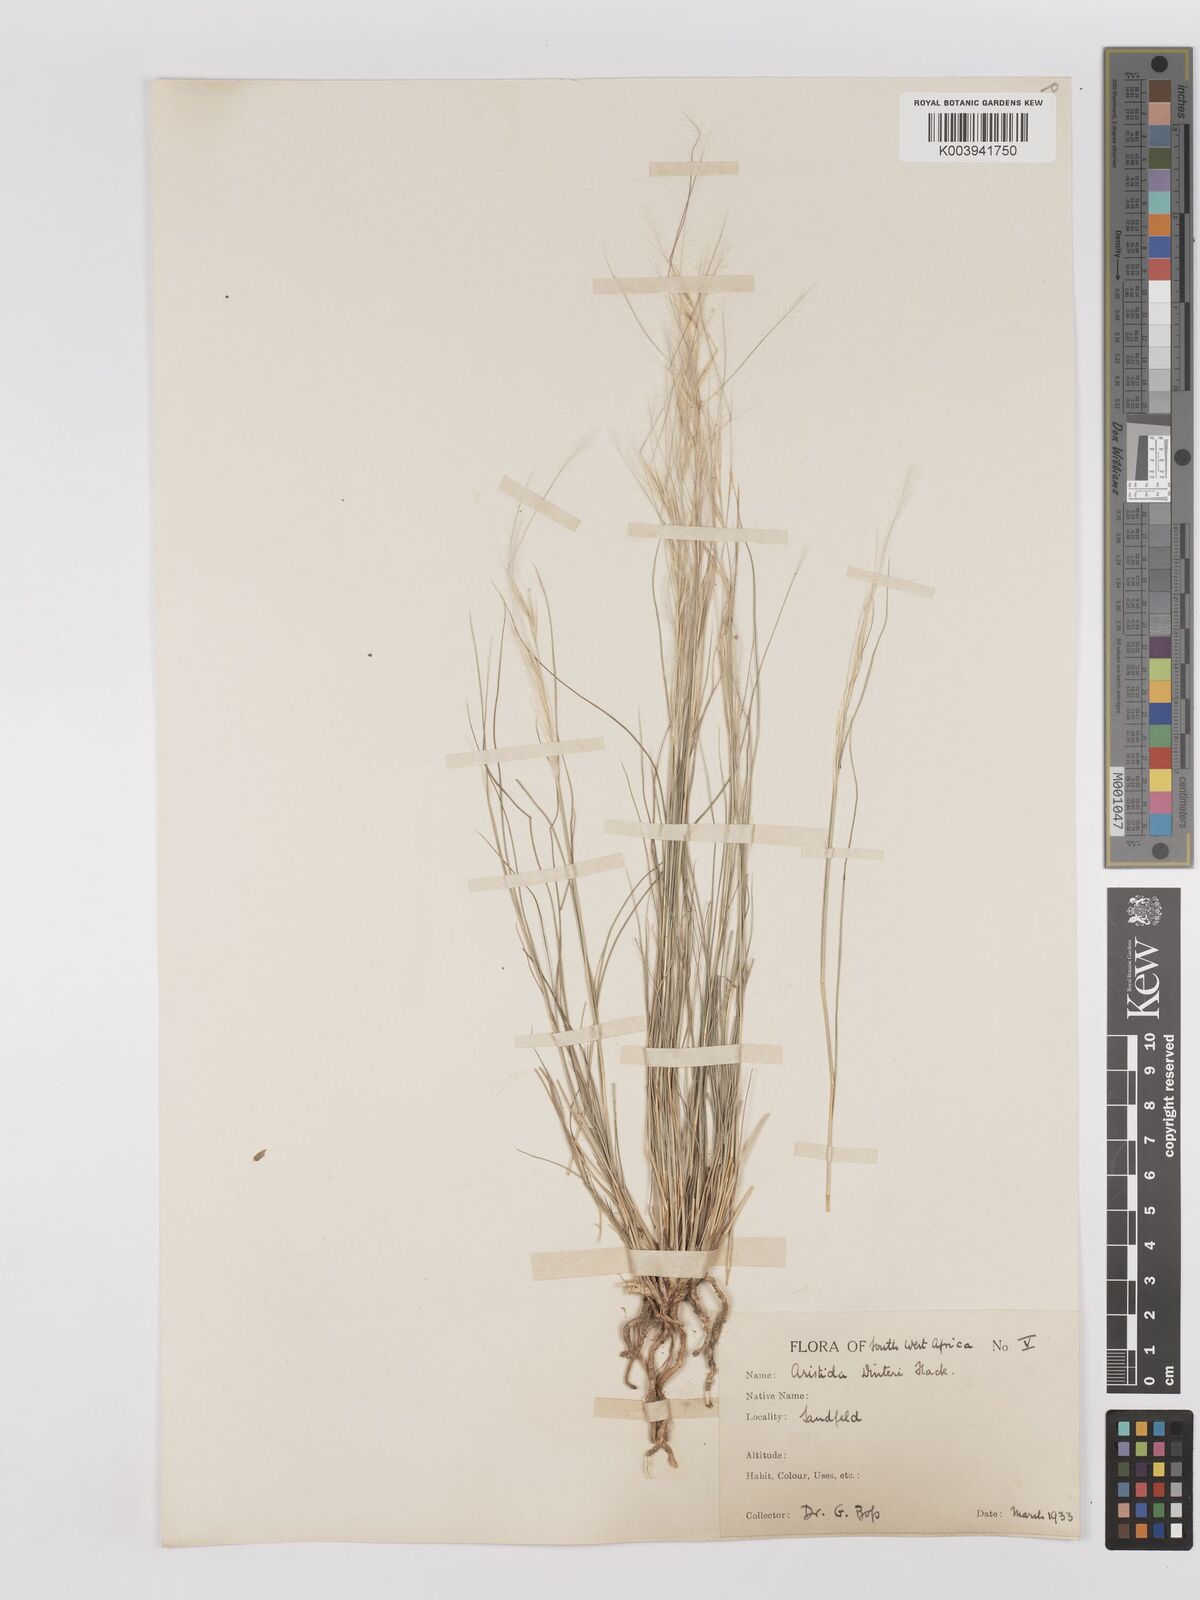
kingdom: Plantae
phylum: Tracheophyta
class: Liliopsida
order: Poales
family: Poaceae
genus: Stipagrostis
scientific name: Stipagrostis dinteri
